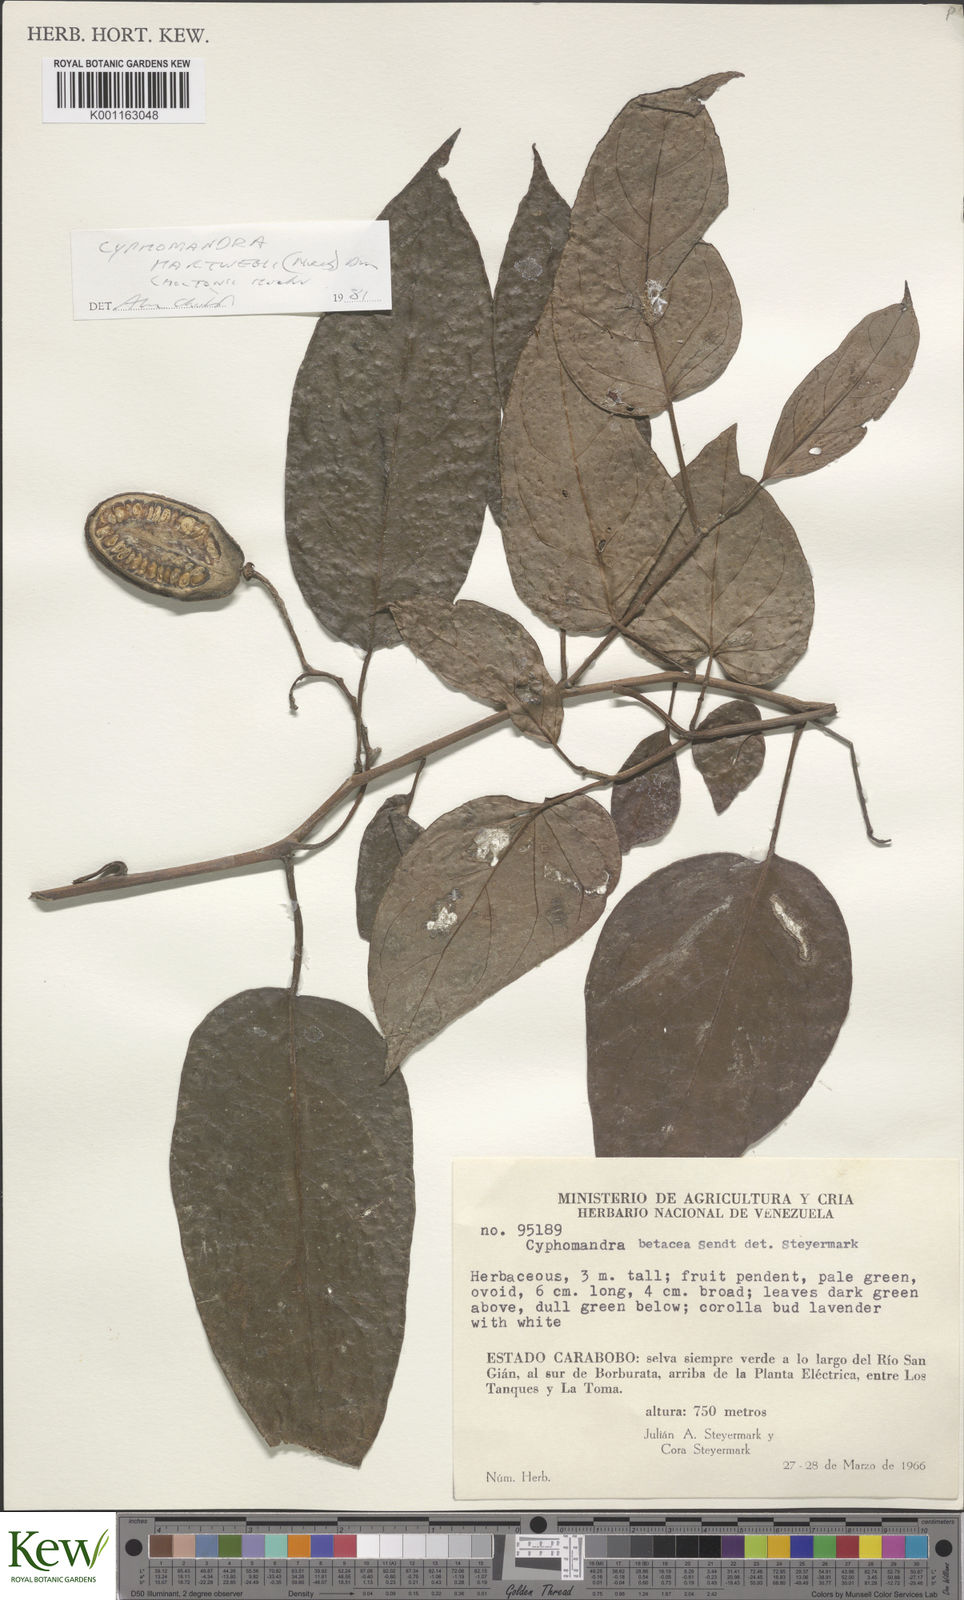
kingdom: Plantae
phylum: Tracheophyta
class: Magnoliopsida
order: Solanales
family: Solanaceae
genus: Solanum
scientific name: Solanum betaceum
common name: Tamarillo
